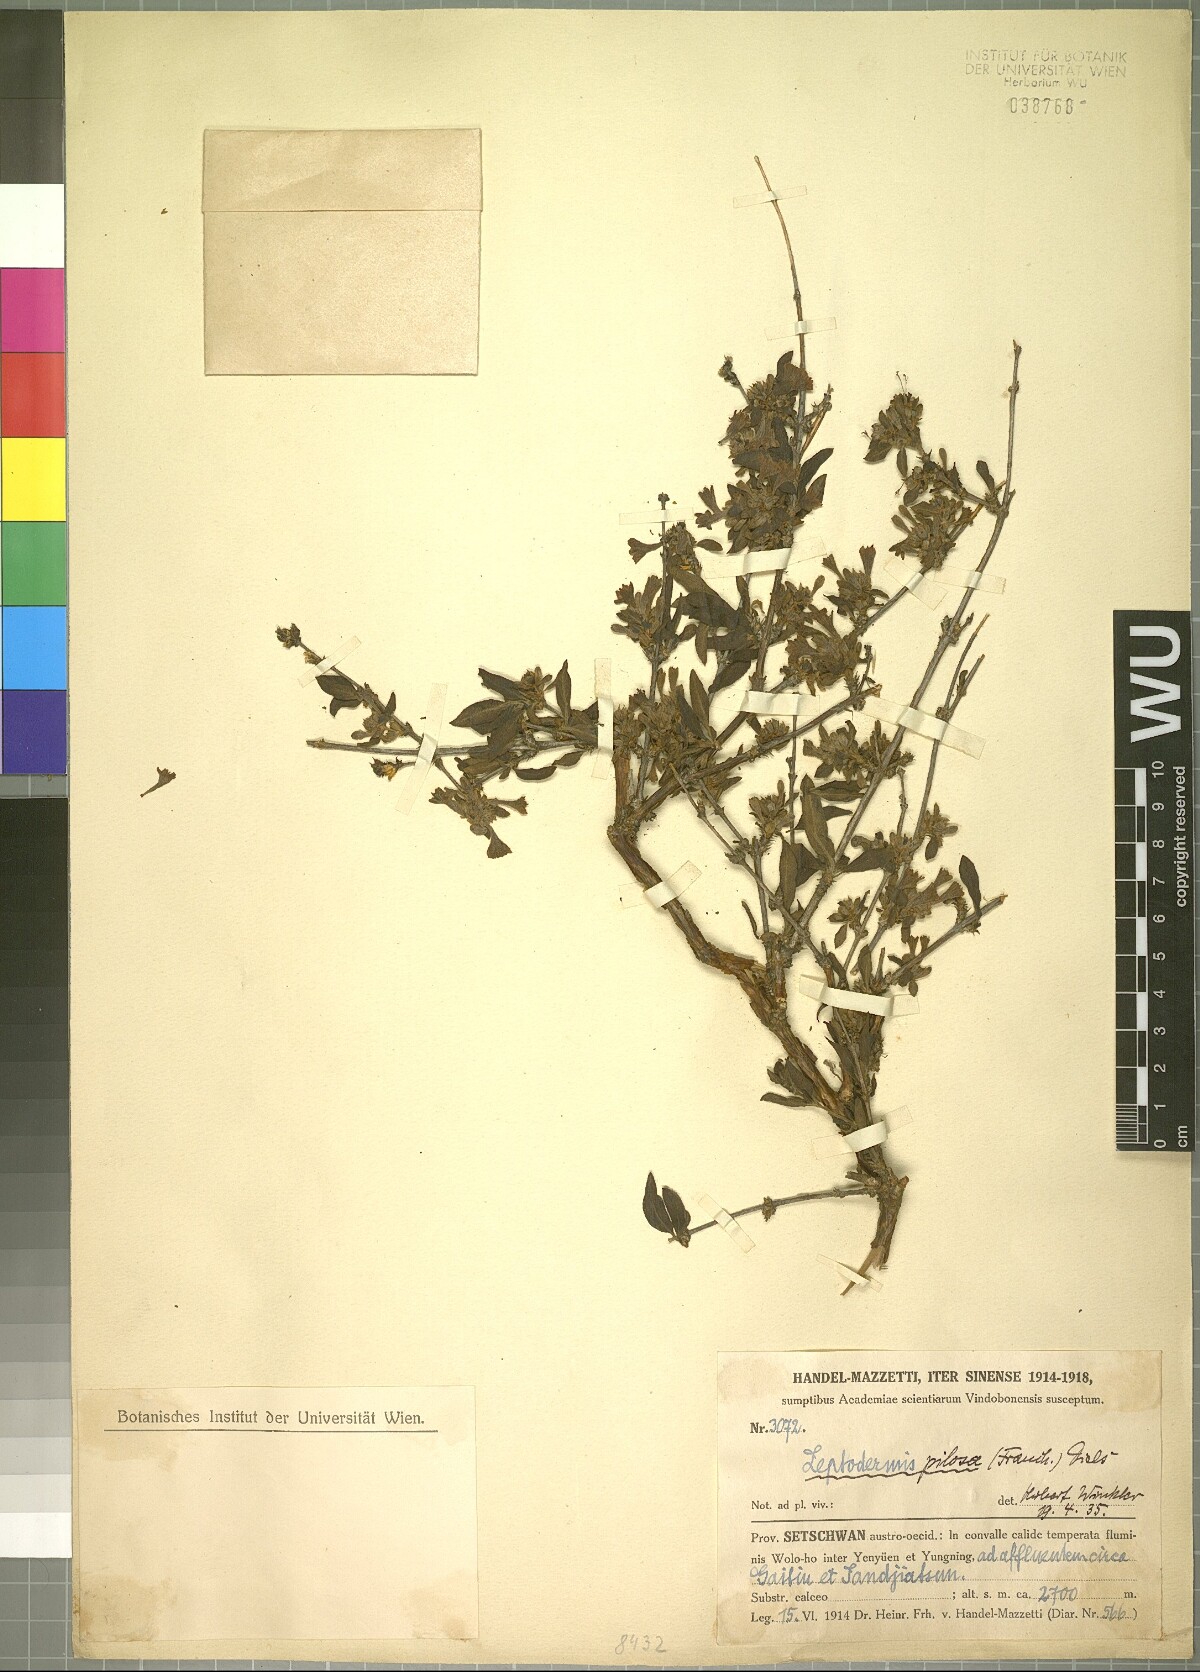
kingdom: Plantae
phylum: Tracheophyta
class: Magnoliopsida
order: Gentianales
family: Rubiaceae
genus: Leptodermis
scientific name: Leptodermis pilosa
